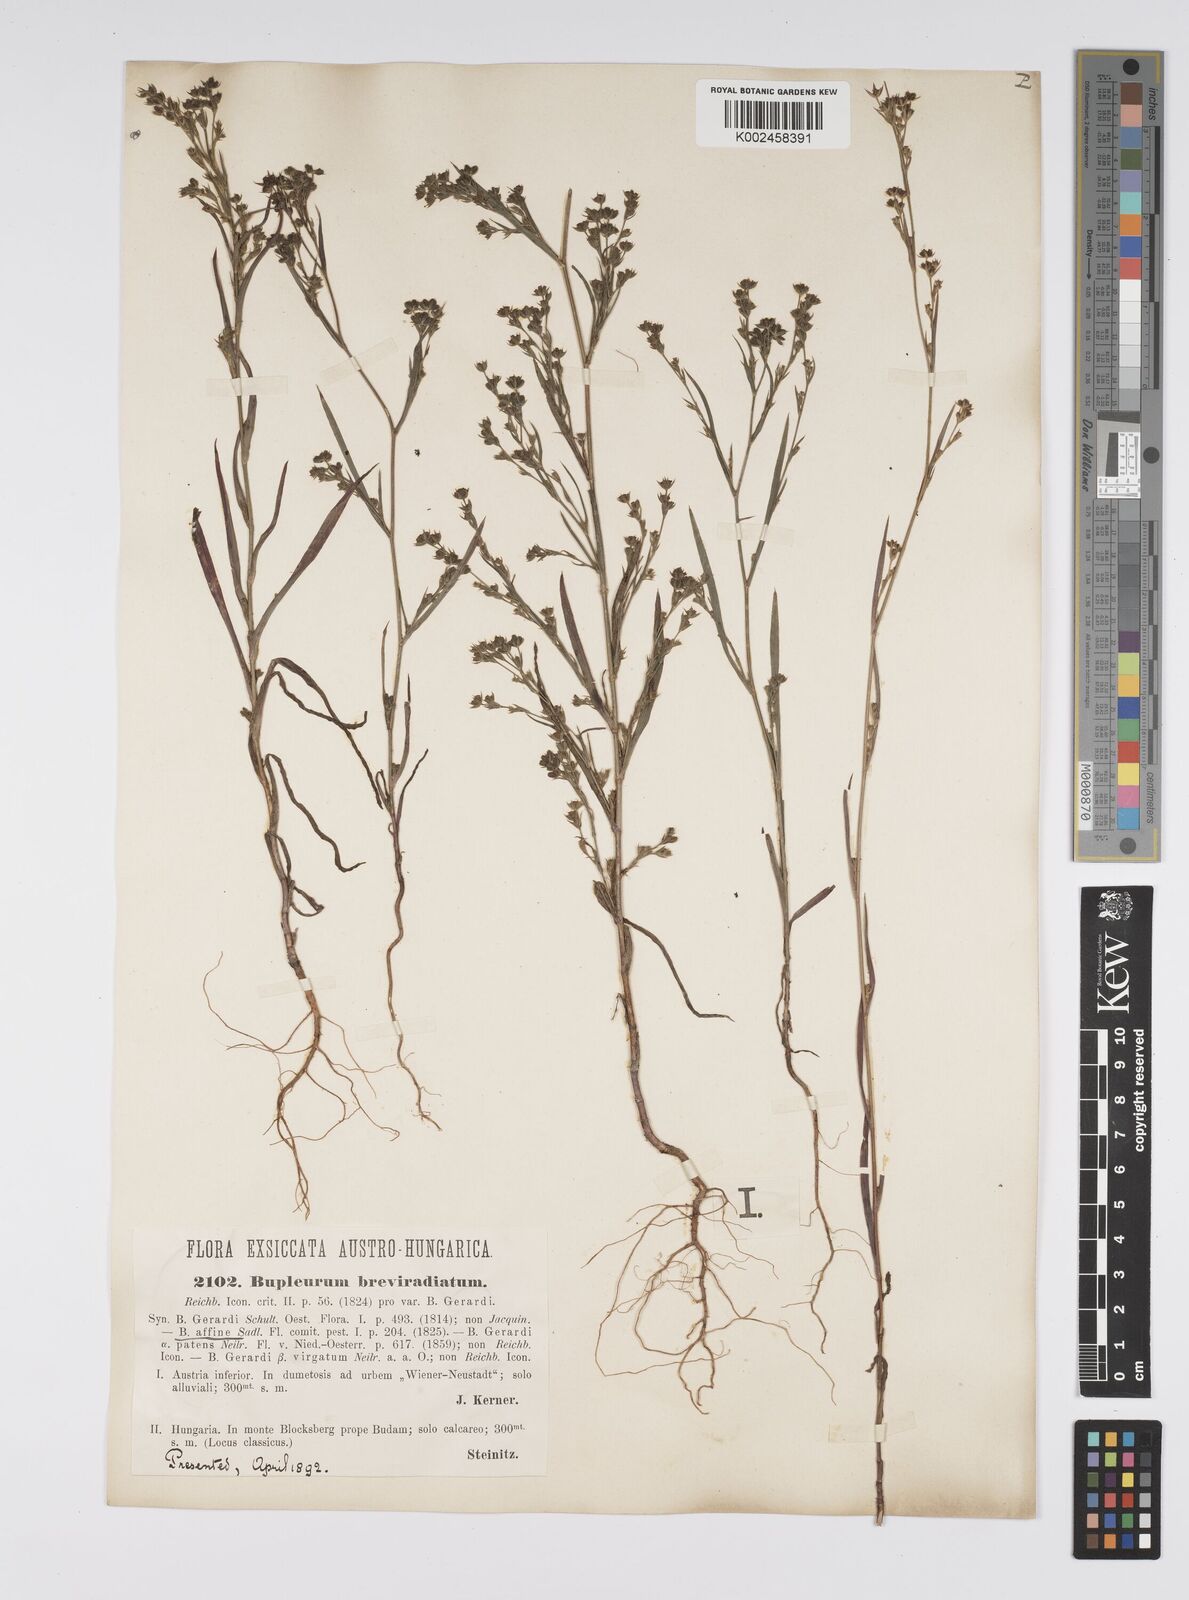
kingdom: Plantae
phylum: Tracheophyta
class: Magnoliopsida
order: Apiales
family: Apiaceae
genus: Bupleurum
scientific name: Bupleurum affine
